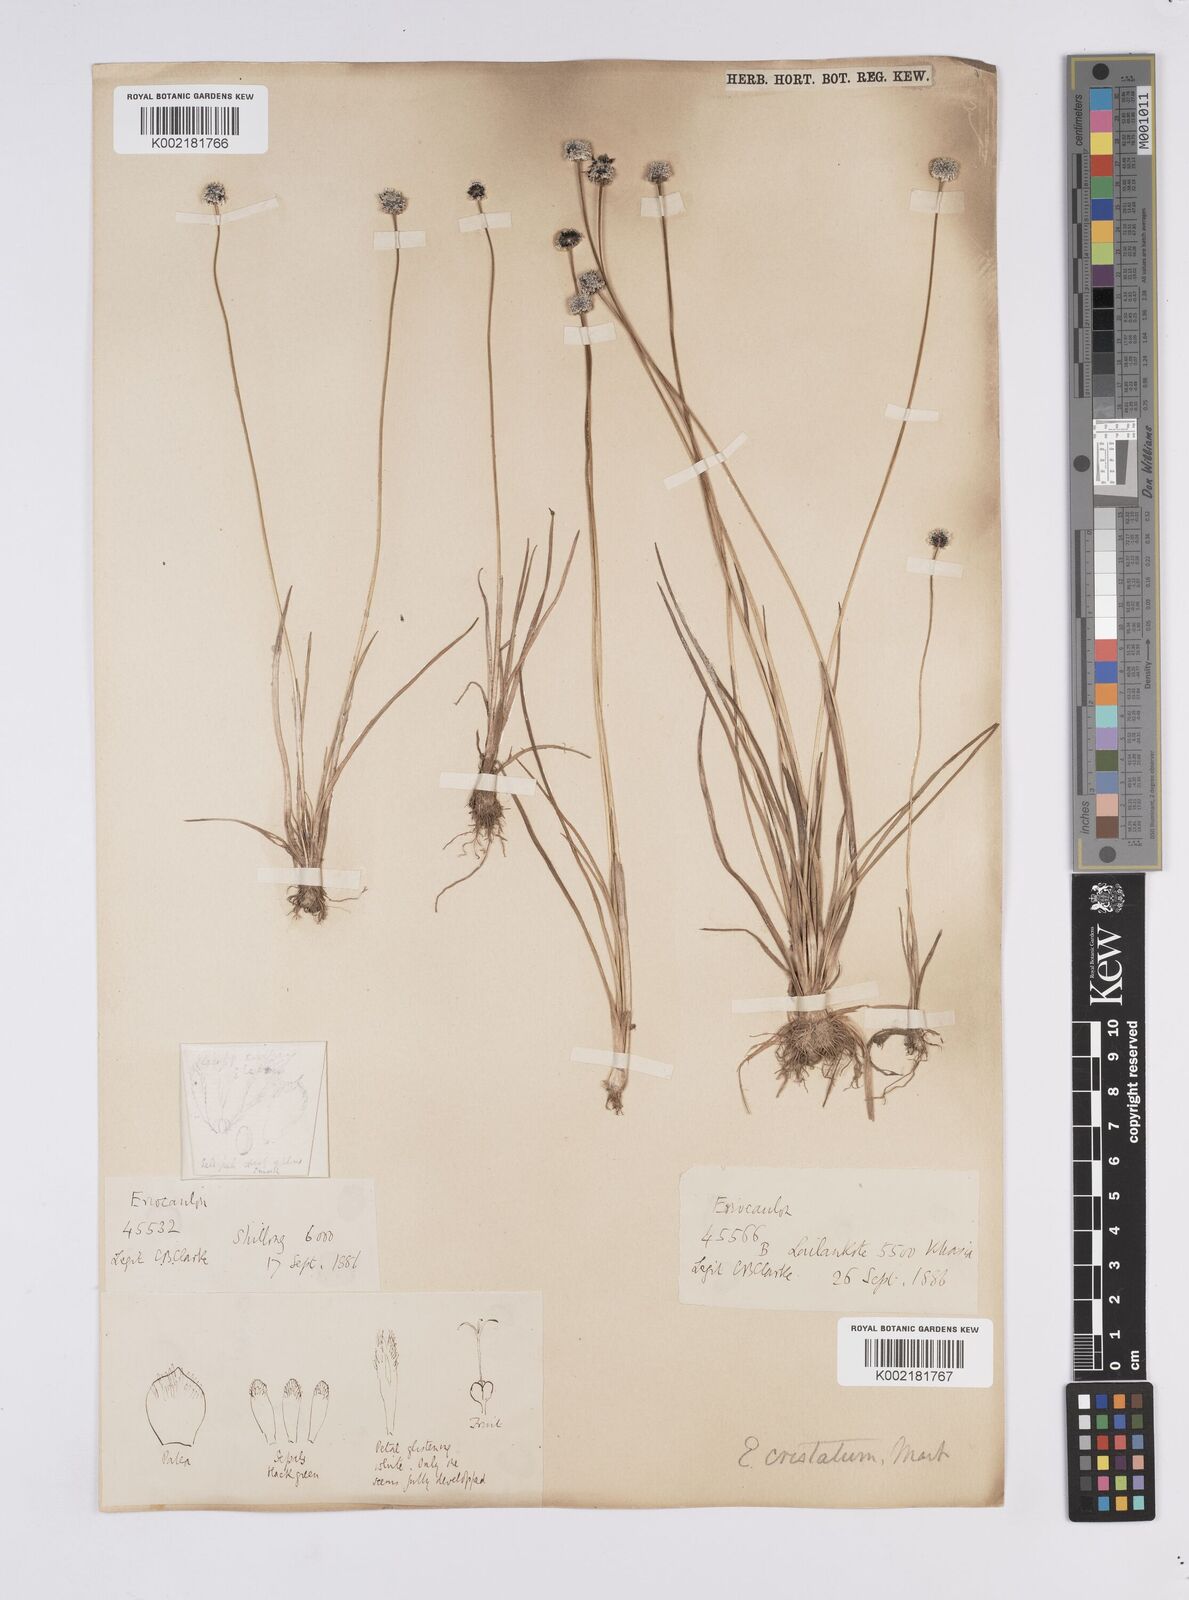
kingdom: Plantae
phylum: Tracheophyta
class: Liliopsida
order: Poales
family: Eriocaulaceae
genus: Eriocaulon
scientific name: Eriocaulon cristatum
